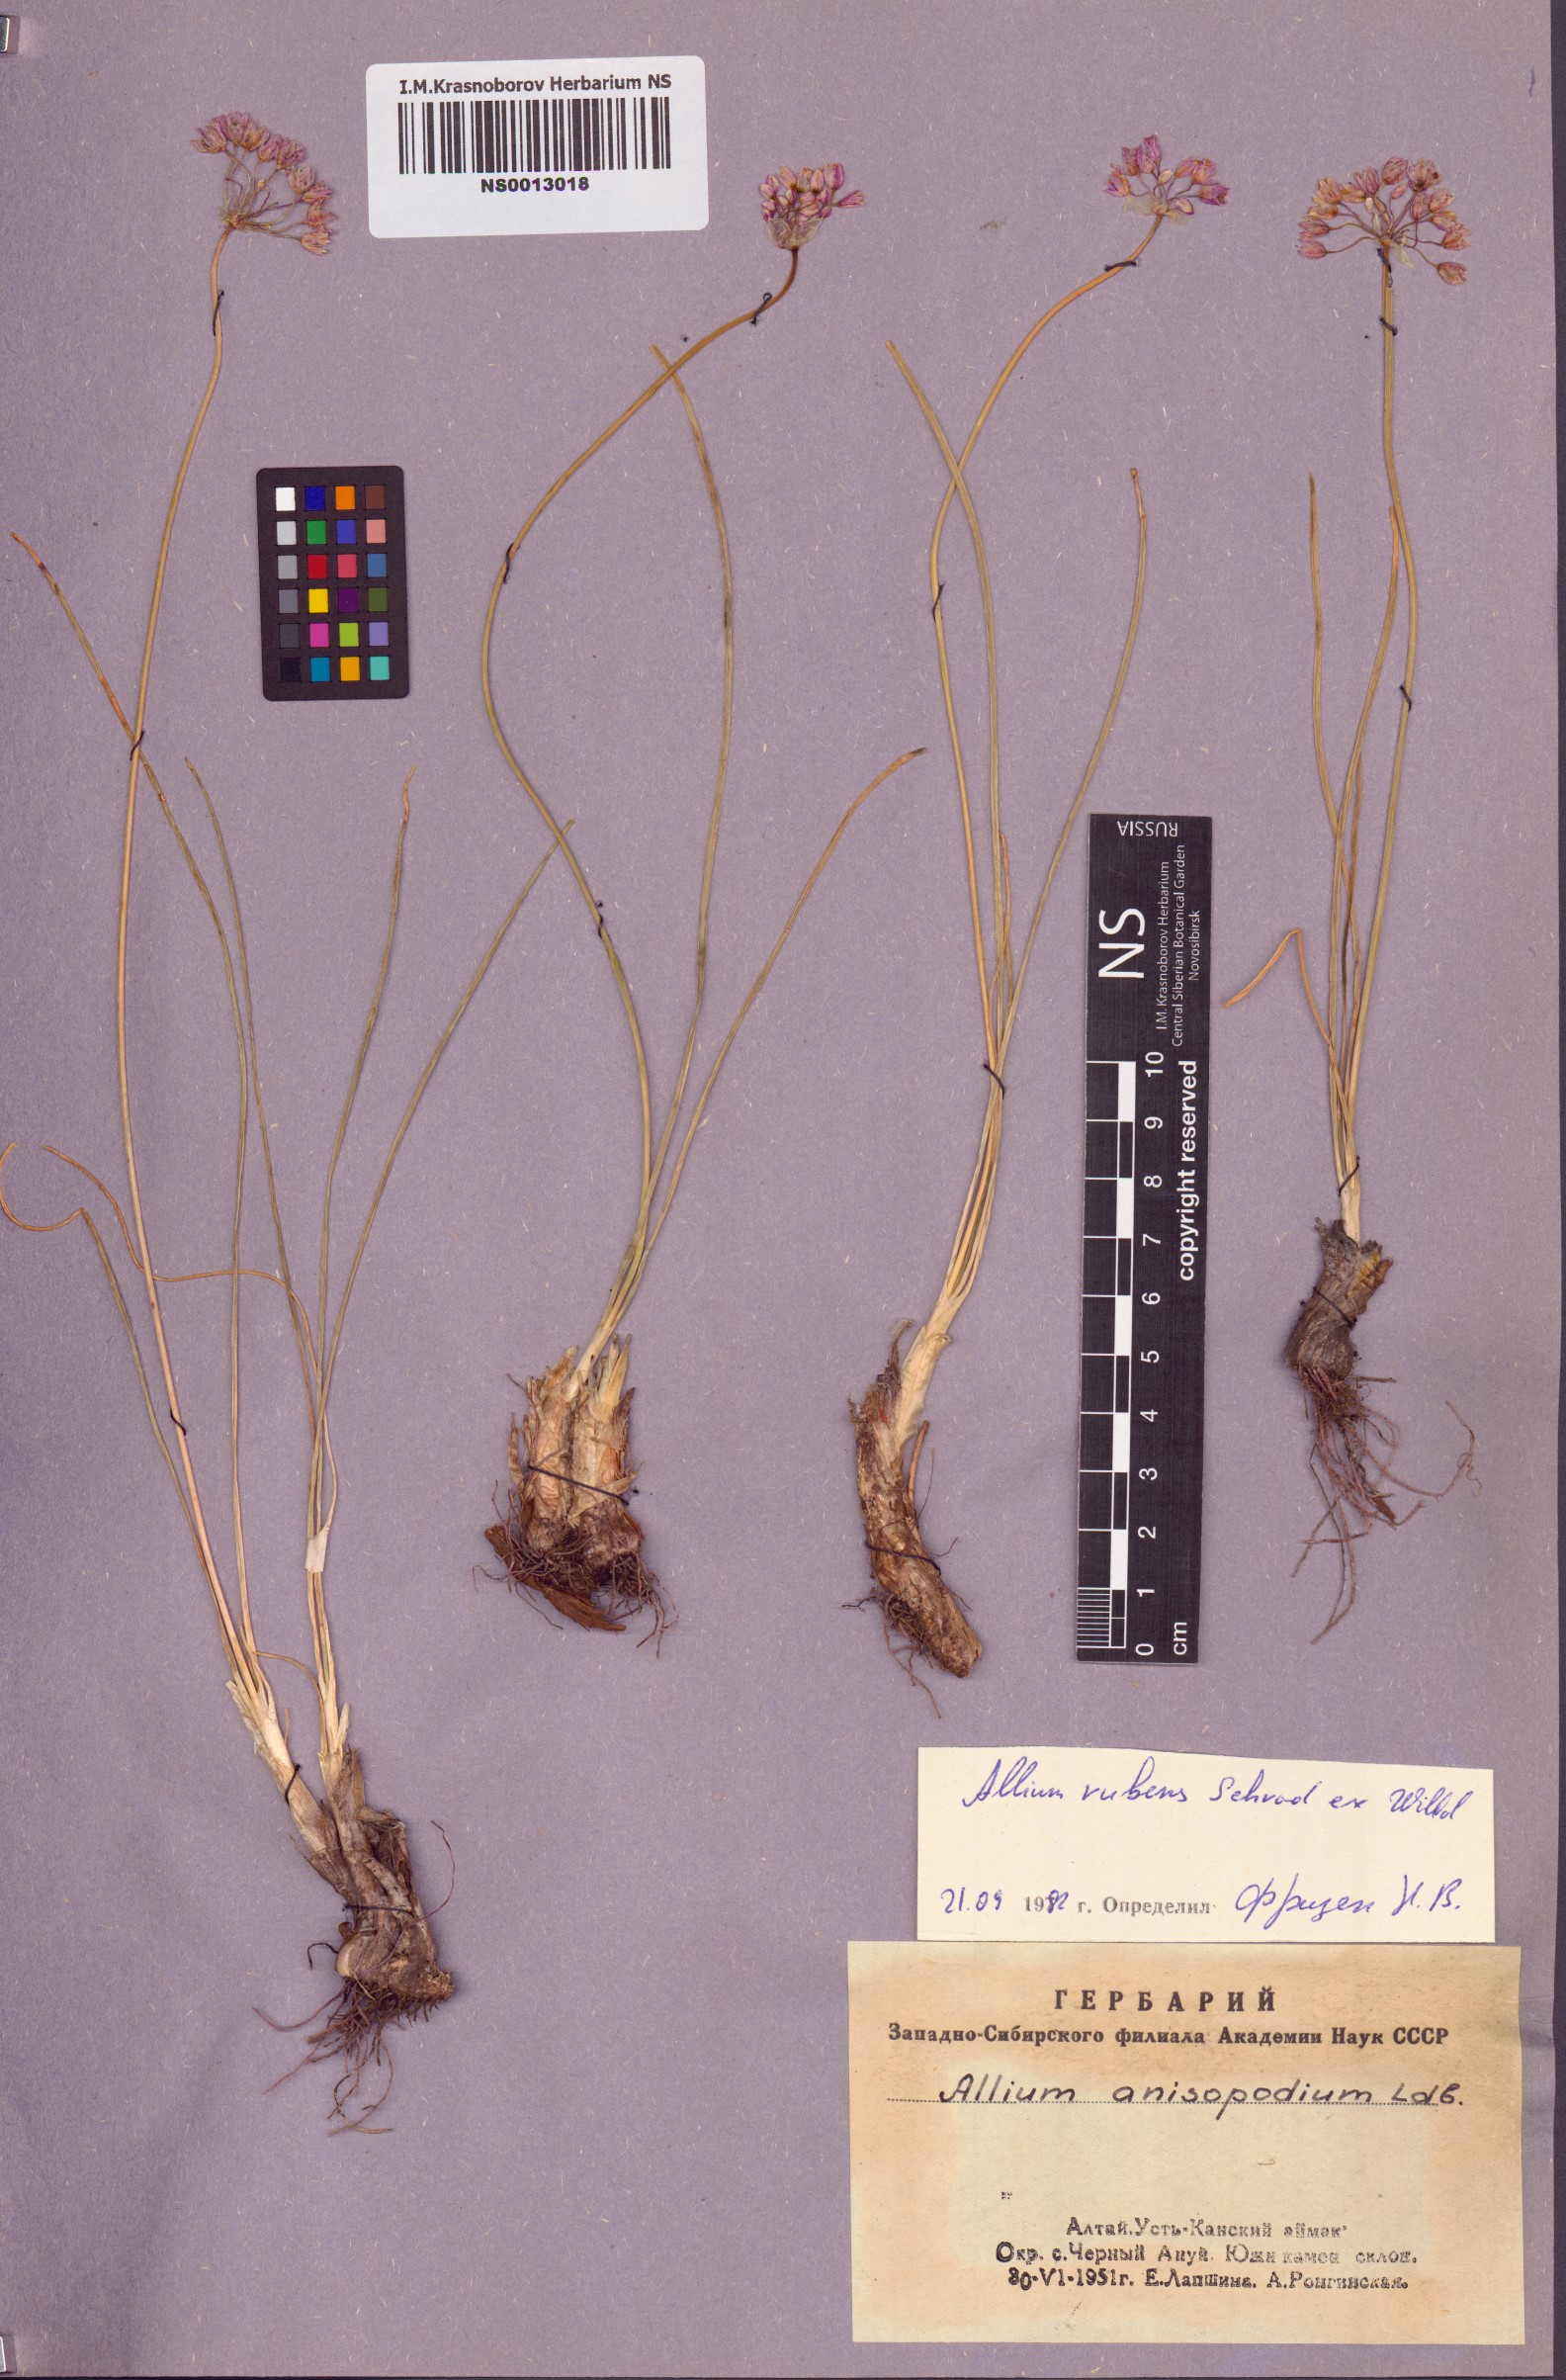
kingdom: Plantae
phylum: Tracheophyta
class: Liliopsida
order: Asparagales
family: Amaryllidaceae
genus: Allium
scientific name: Allium rubens
